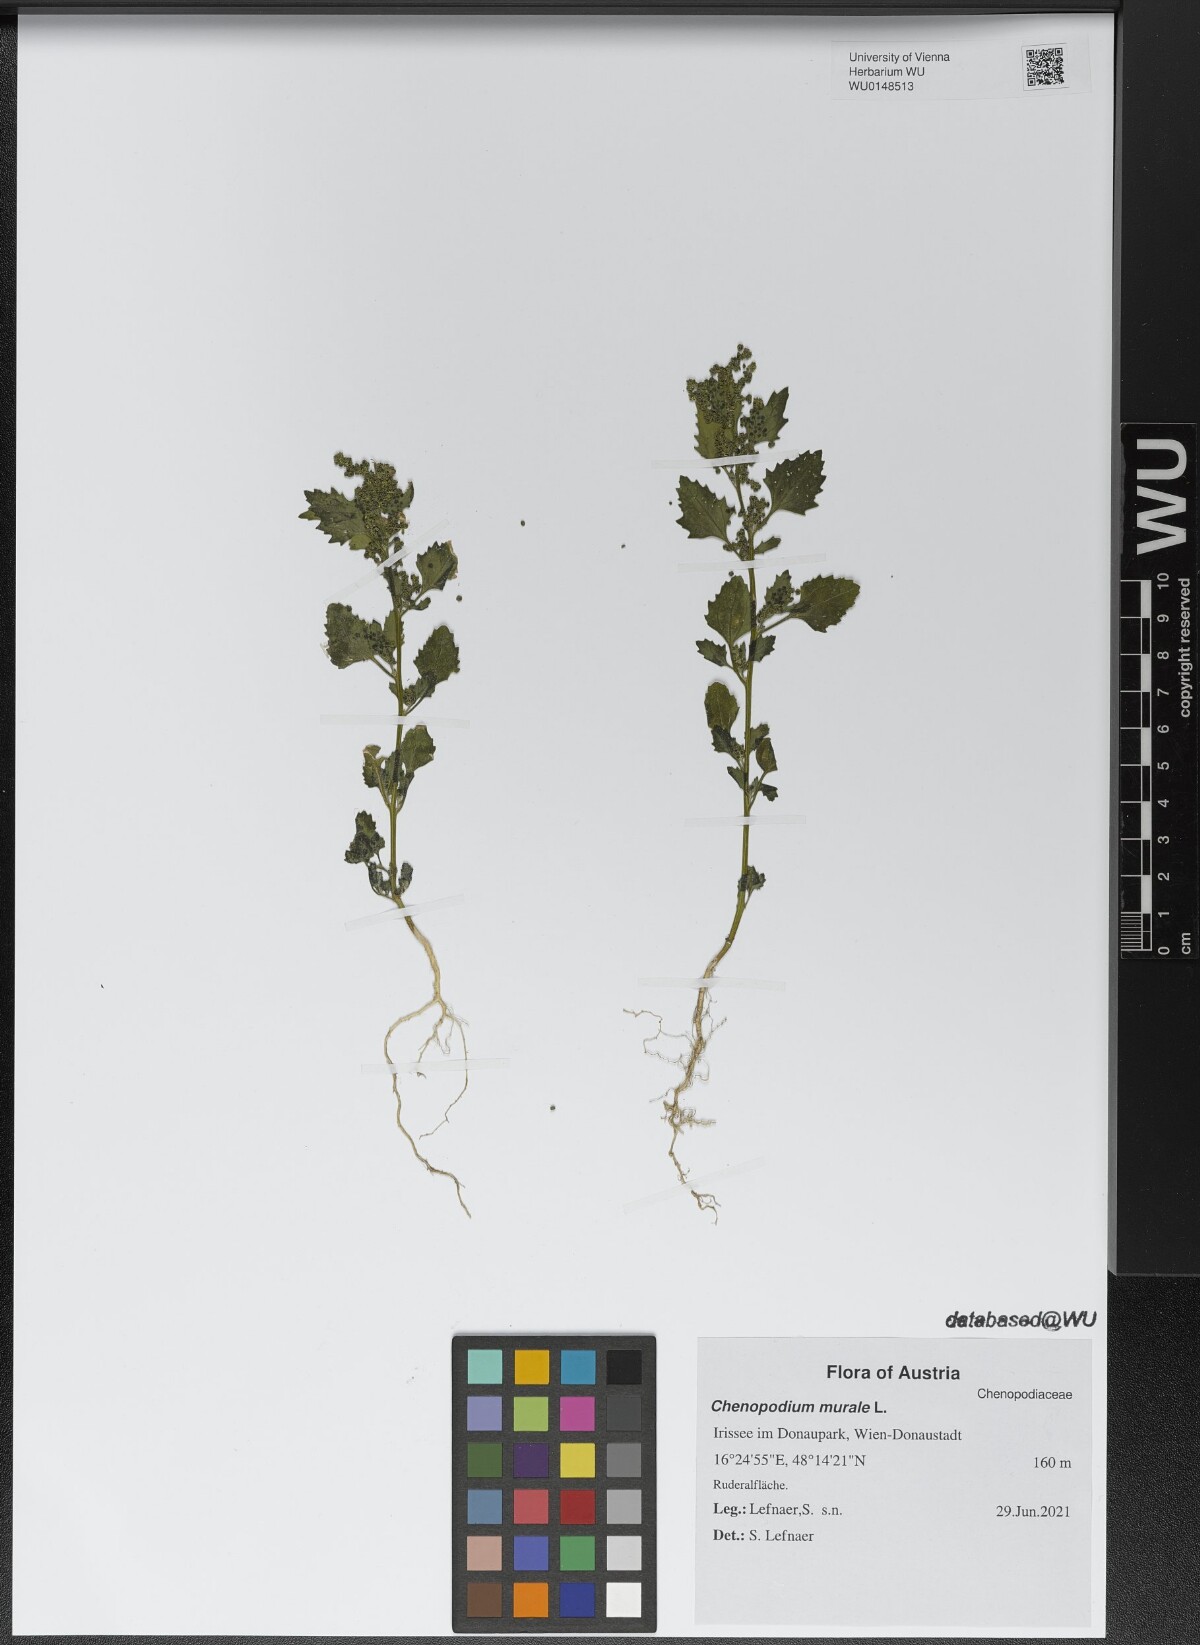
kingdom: Plantae
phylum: Tracheophyta
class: Magnoliopsida
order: Caryophyllales
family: Amaranthaceae
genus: Chenopodiastrum
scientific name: Chenopodiastrum murale
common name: Sowbane
